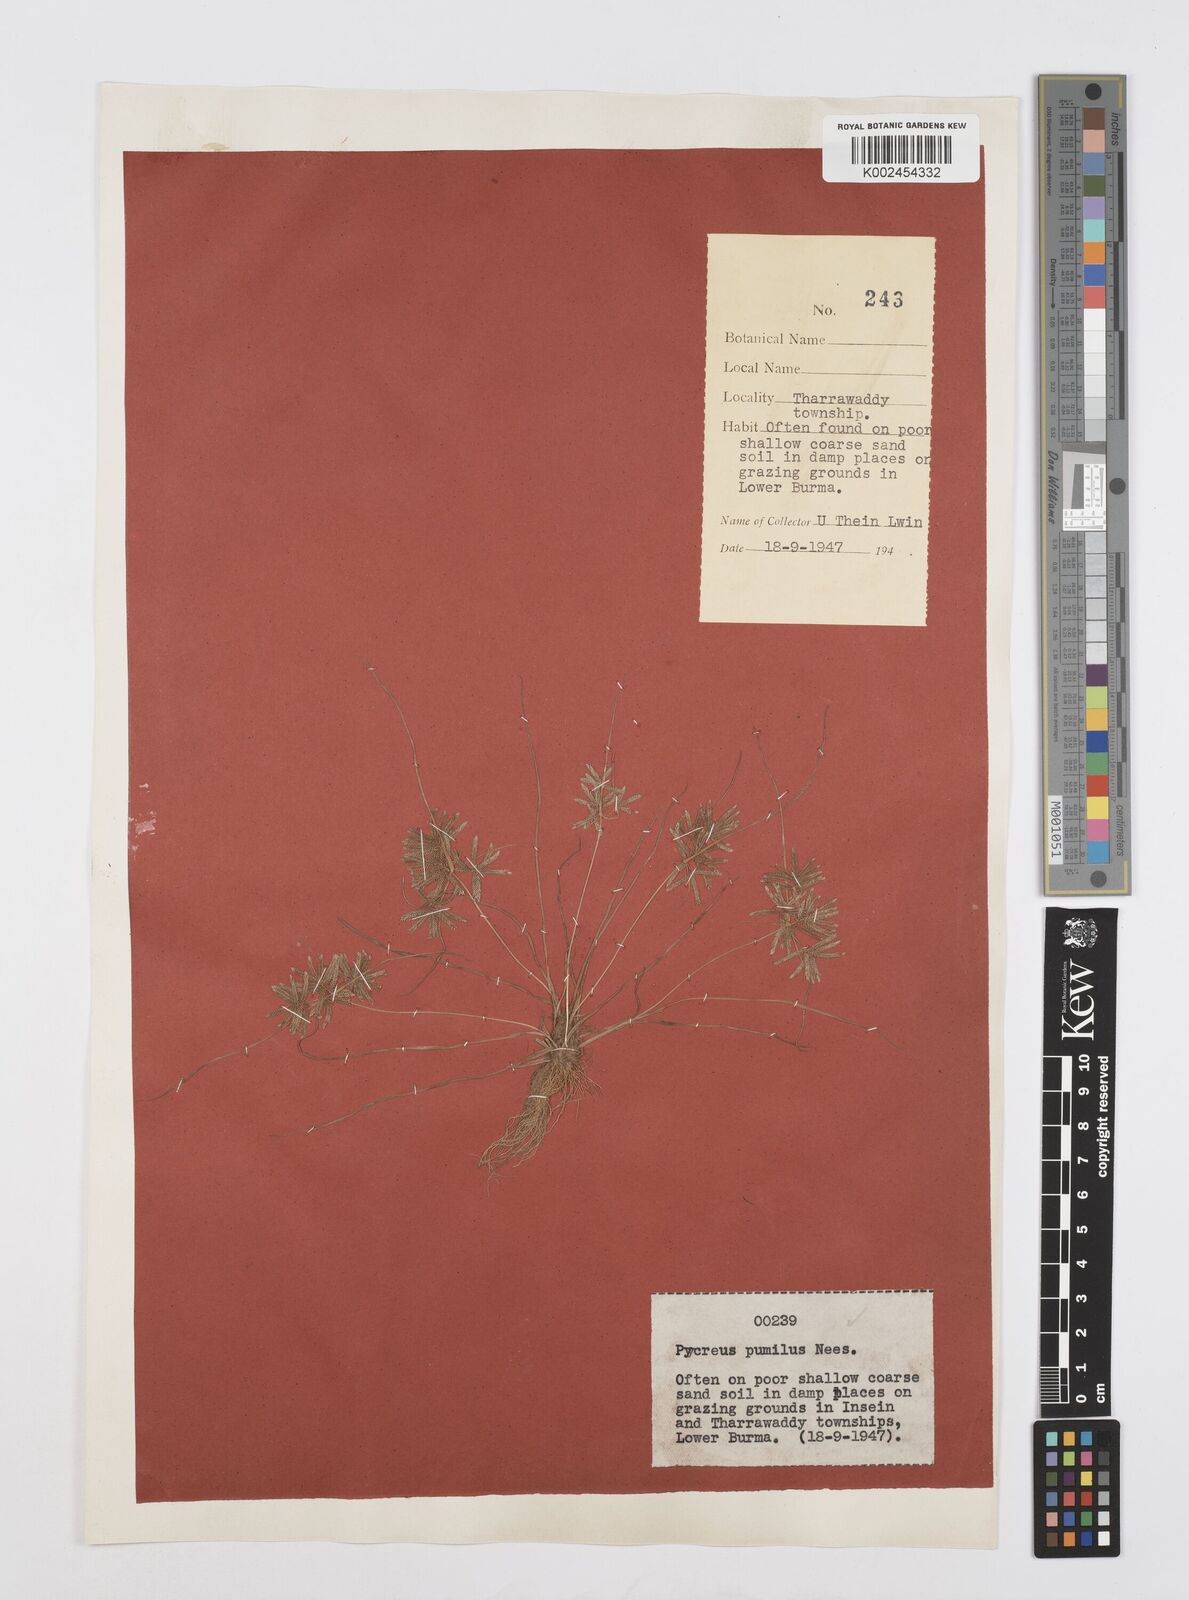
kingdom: Plantae
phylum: Tracheophyta
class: Liliopsida
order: Poales
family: Cyperaceae
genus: Cyperus
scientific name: Cyperus pumilus
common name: Low flatsedge
